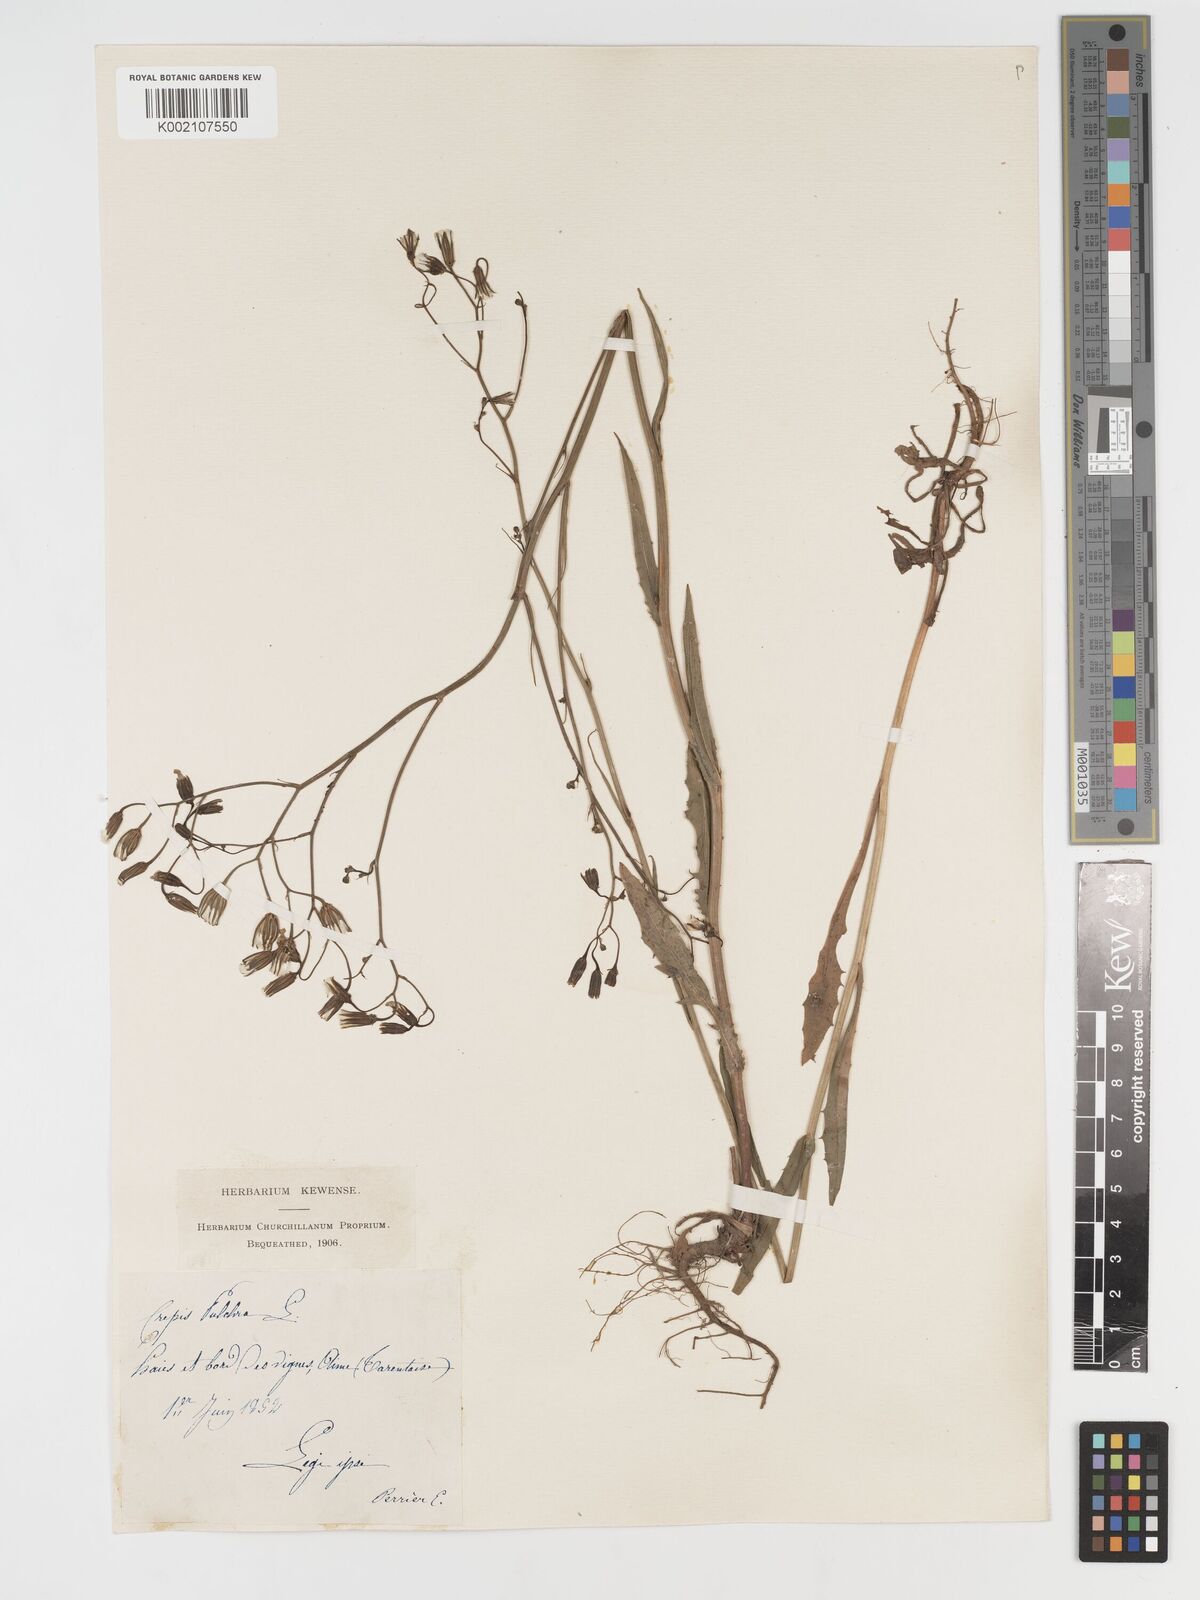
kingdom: Plantae
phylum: Tracheophyta
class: Magnoliopsida
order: Asterales
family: Asteraceae
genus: Crepis
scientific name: Crepis pulchra
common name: Hawk's-beard
